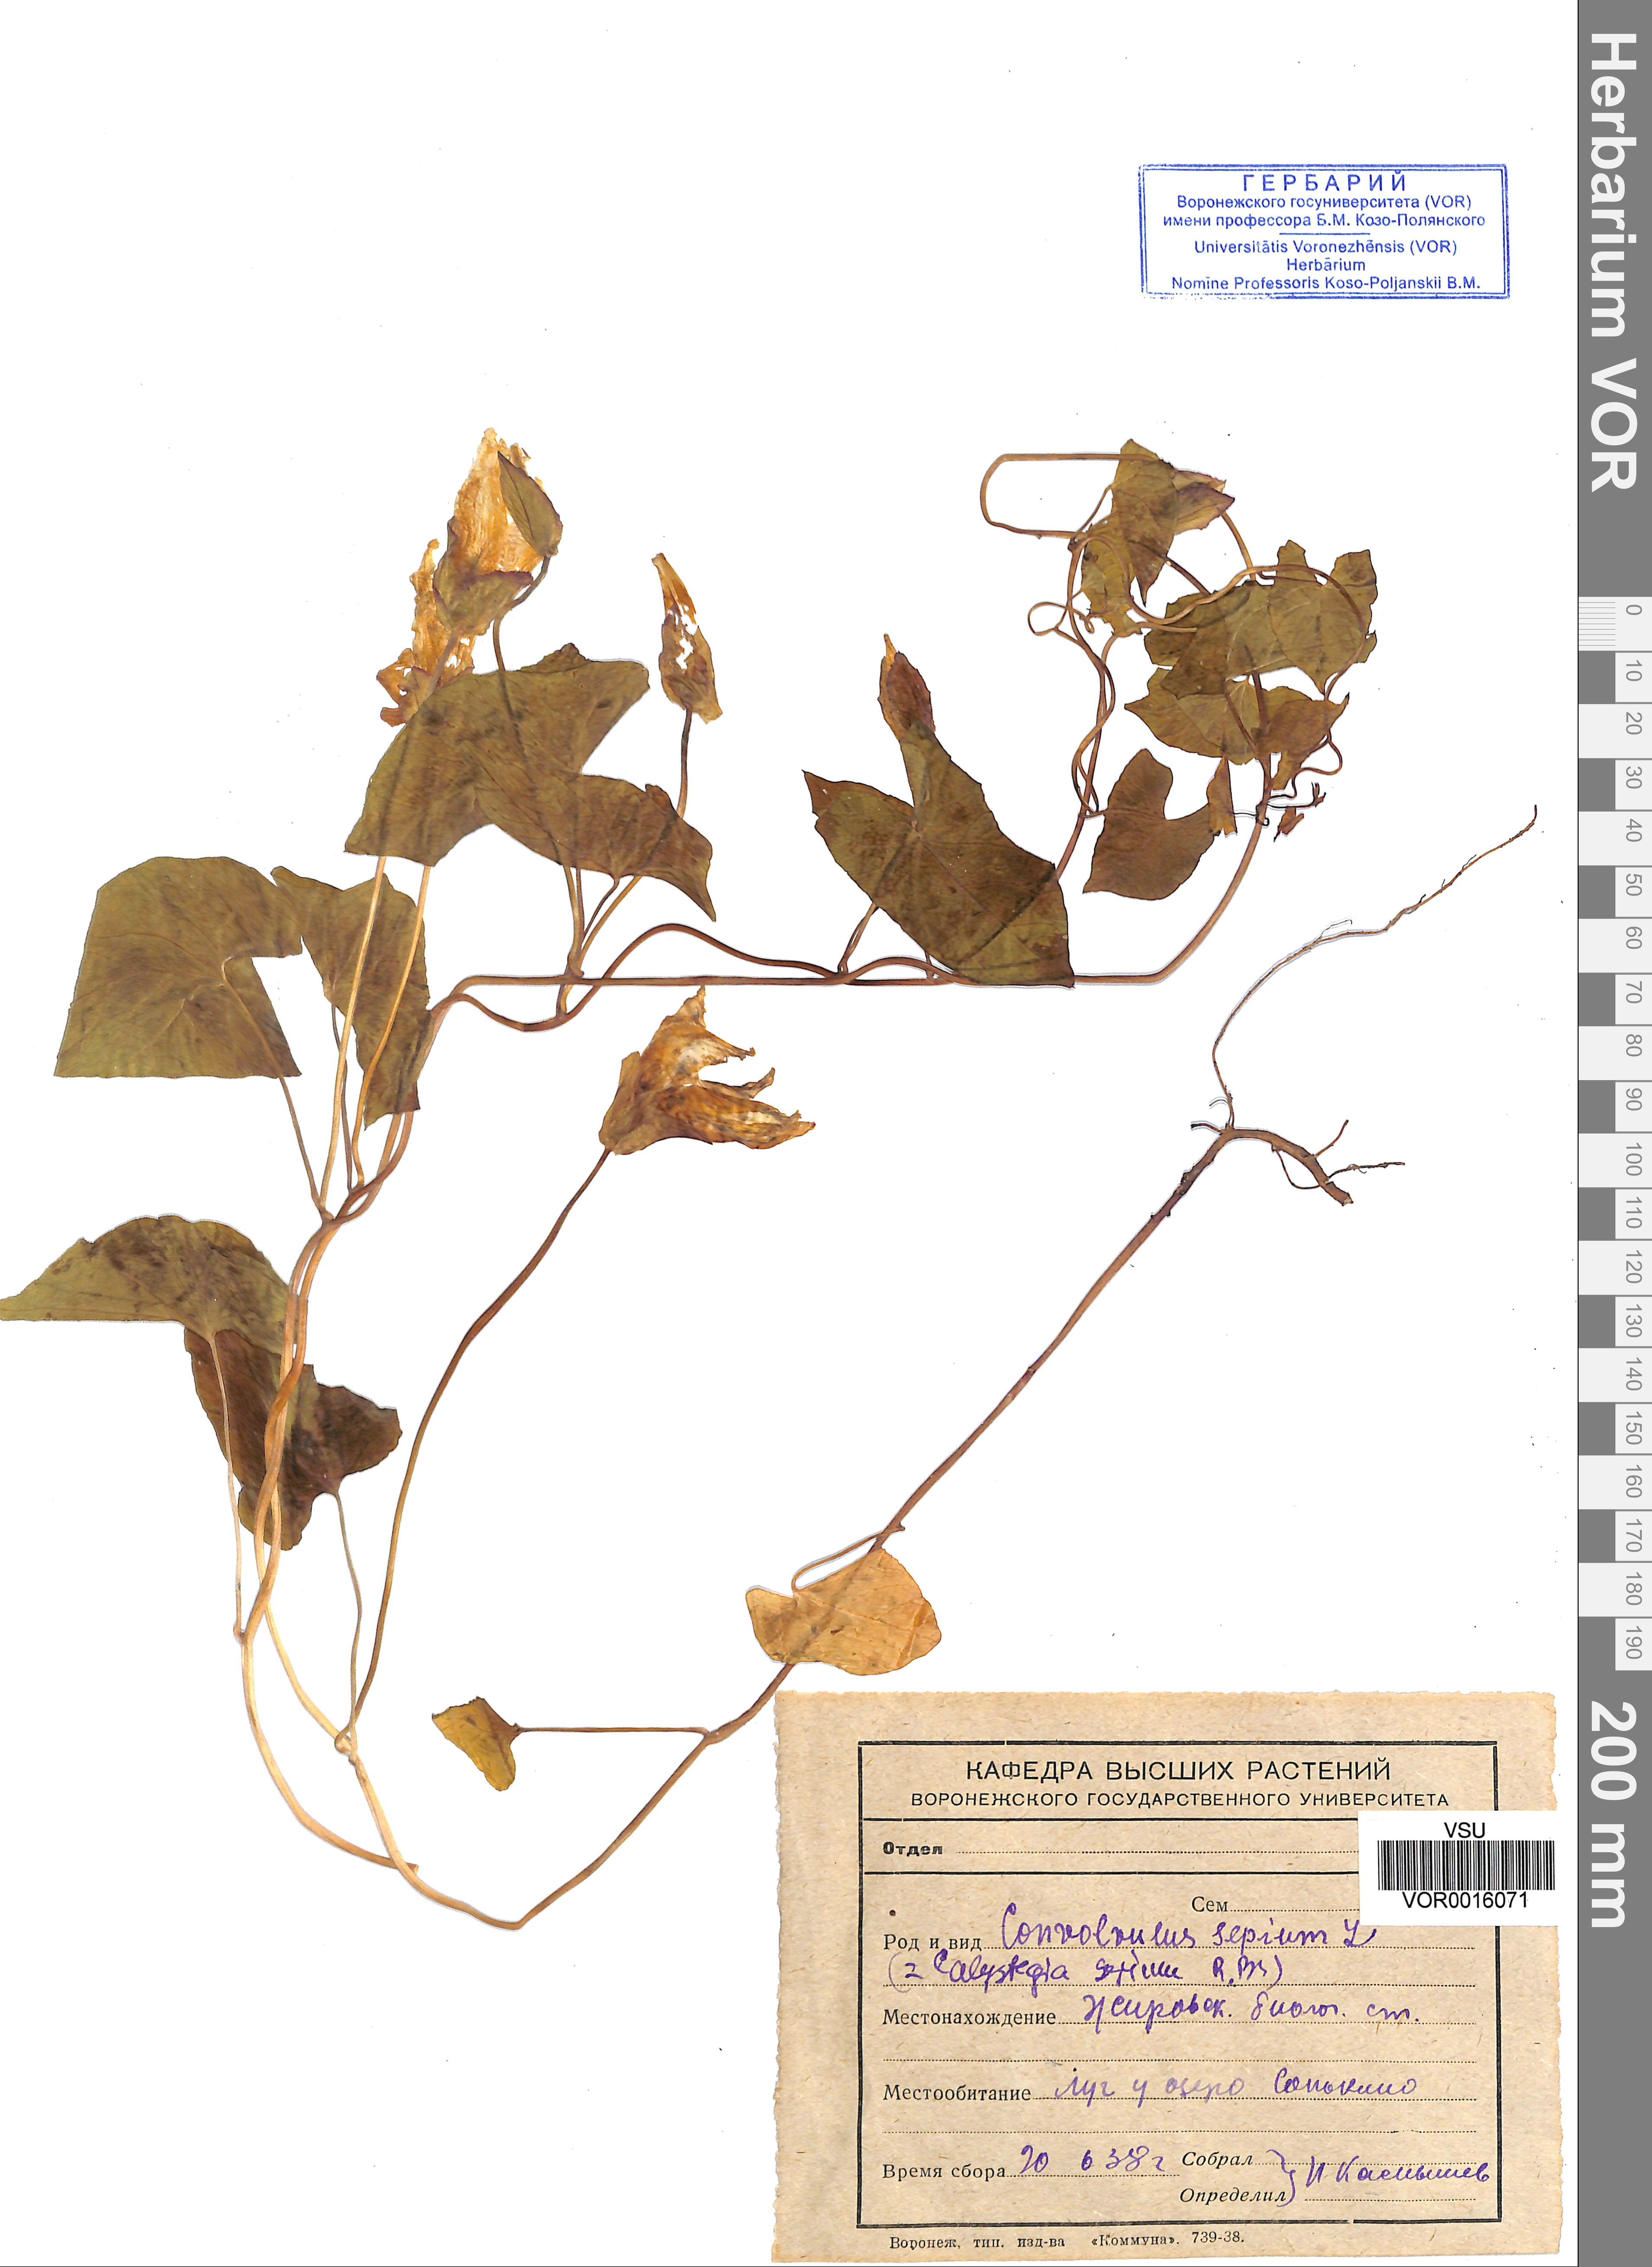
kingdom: Plantae
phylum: Tracheophyta
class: Magnoliopsida
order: Solanales
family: Convolvulaceae
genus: Calystegia
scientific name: Calystegia sepium
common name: Hedge bindweed
